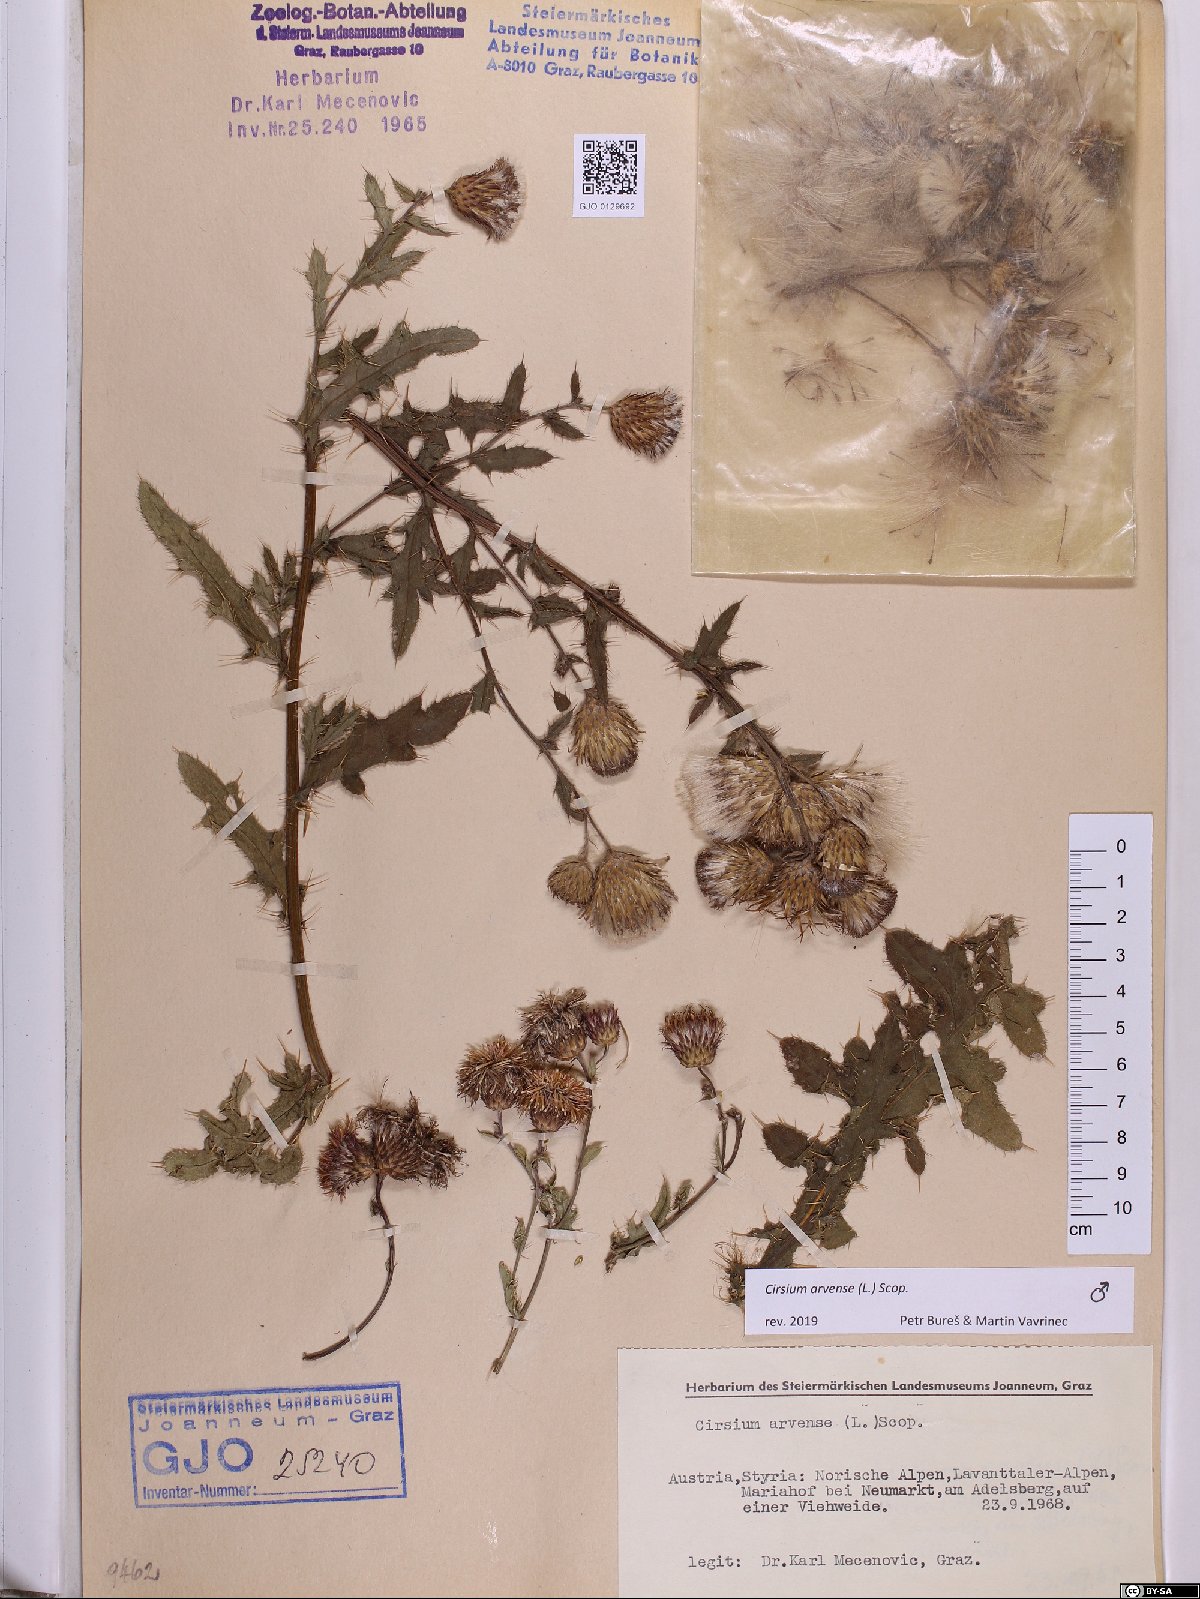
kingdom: Plantae
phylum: Tracheophyta
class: Magnoliopsida
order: Asterales
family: Asteraceae
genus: Cirsium
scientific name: Cirsium arvense
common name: Creeping thistle
